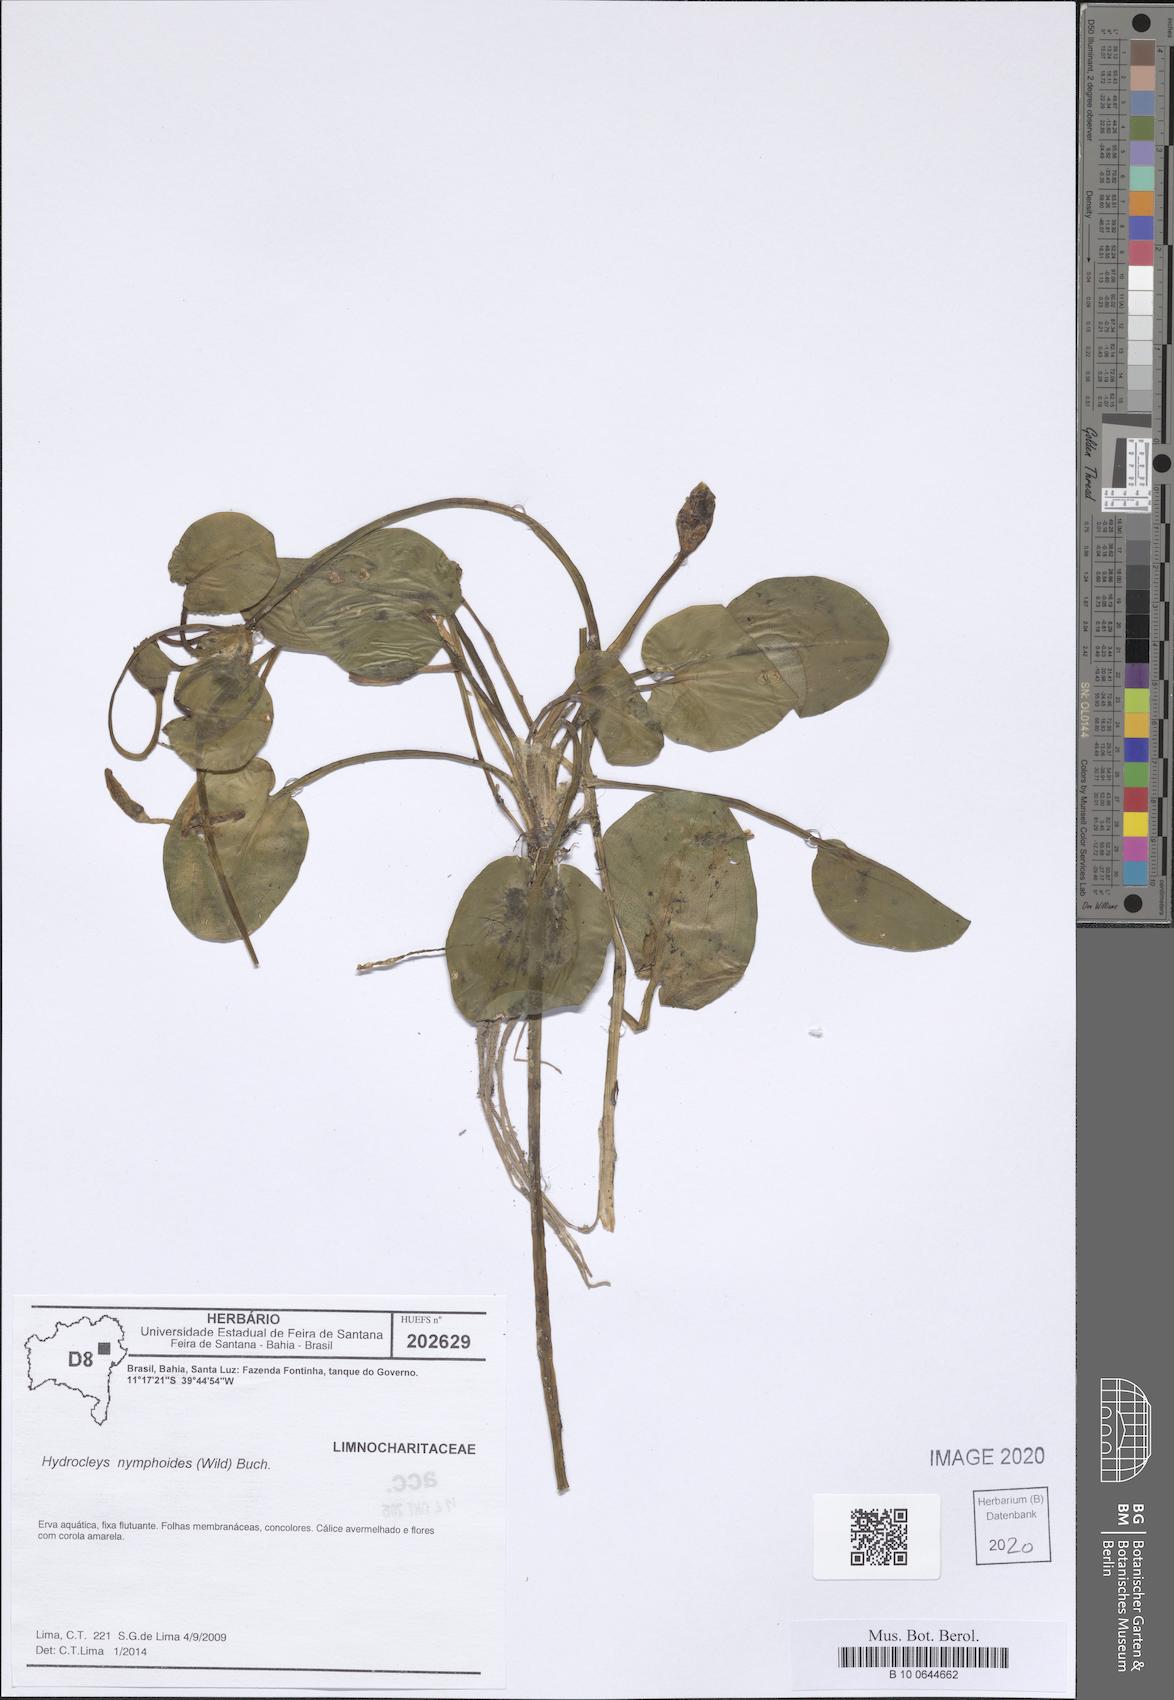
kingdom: Plantae
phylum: Tracheophyta
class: Liliopsida
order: Alismatales
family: Alismataceae
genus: Hydrocleys
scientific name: Hydrocleys nymphoides
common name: Water-poppy
